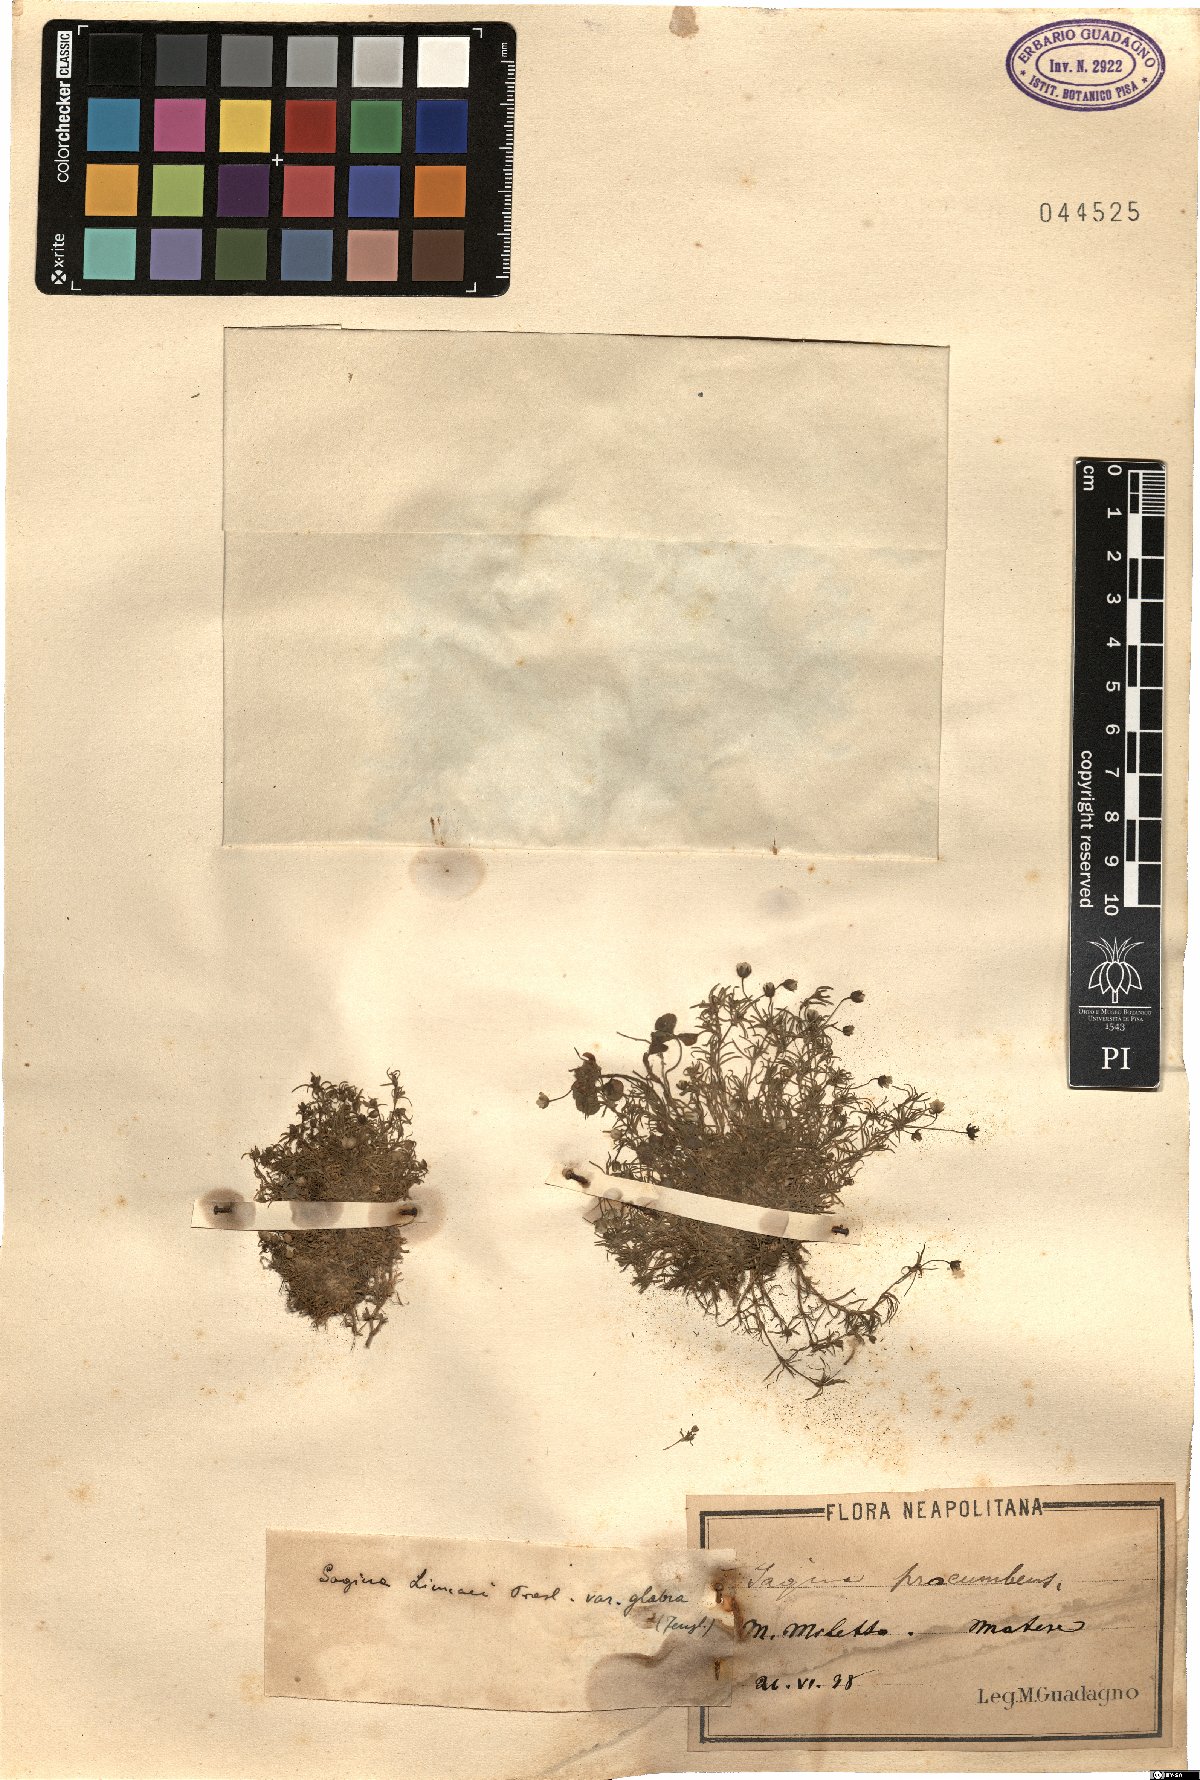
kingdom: Plantae
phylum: Tracheophyta
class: Magnoliopsida
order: Caryophyllales
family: Caryophyllaceae
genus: Sagina
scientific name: Sagina
